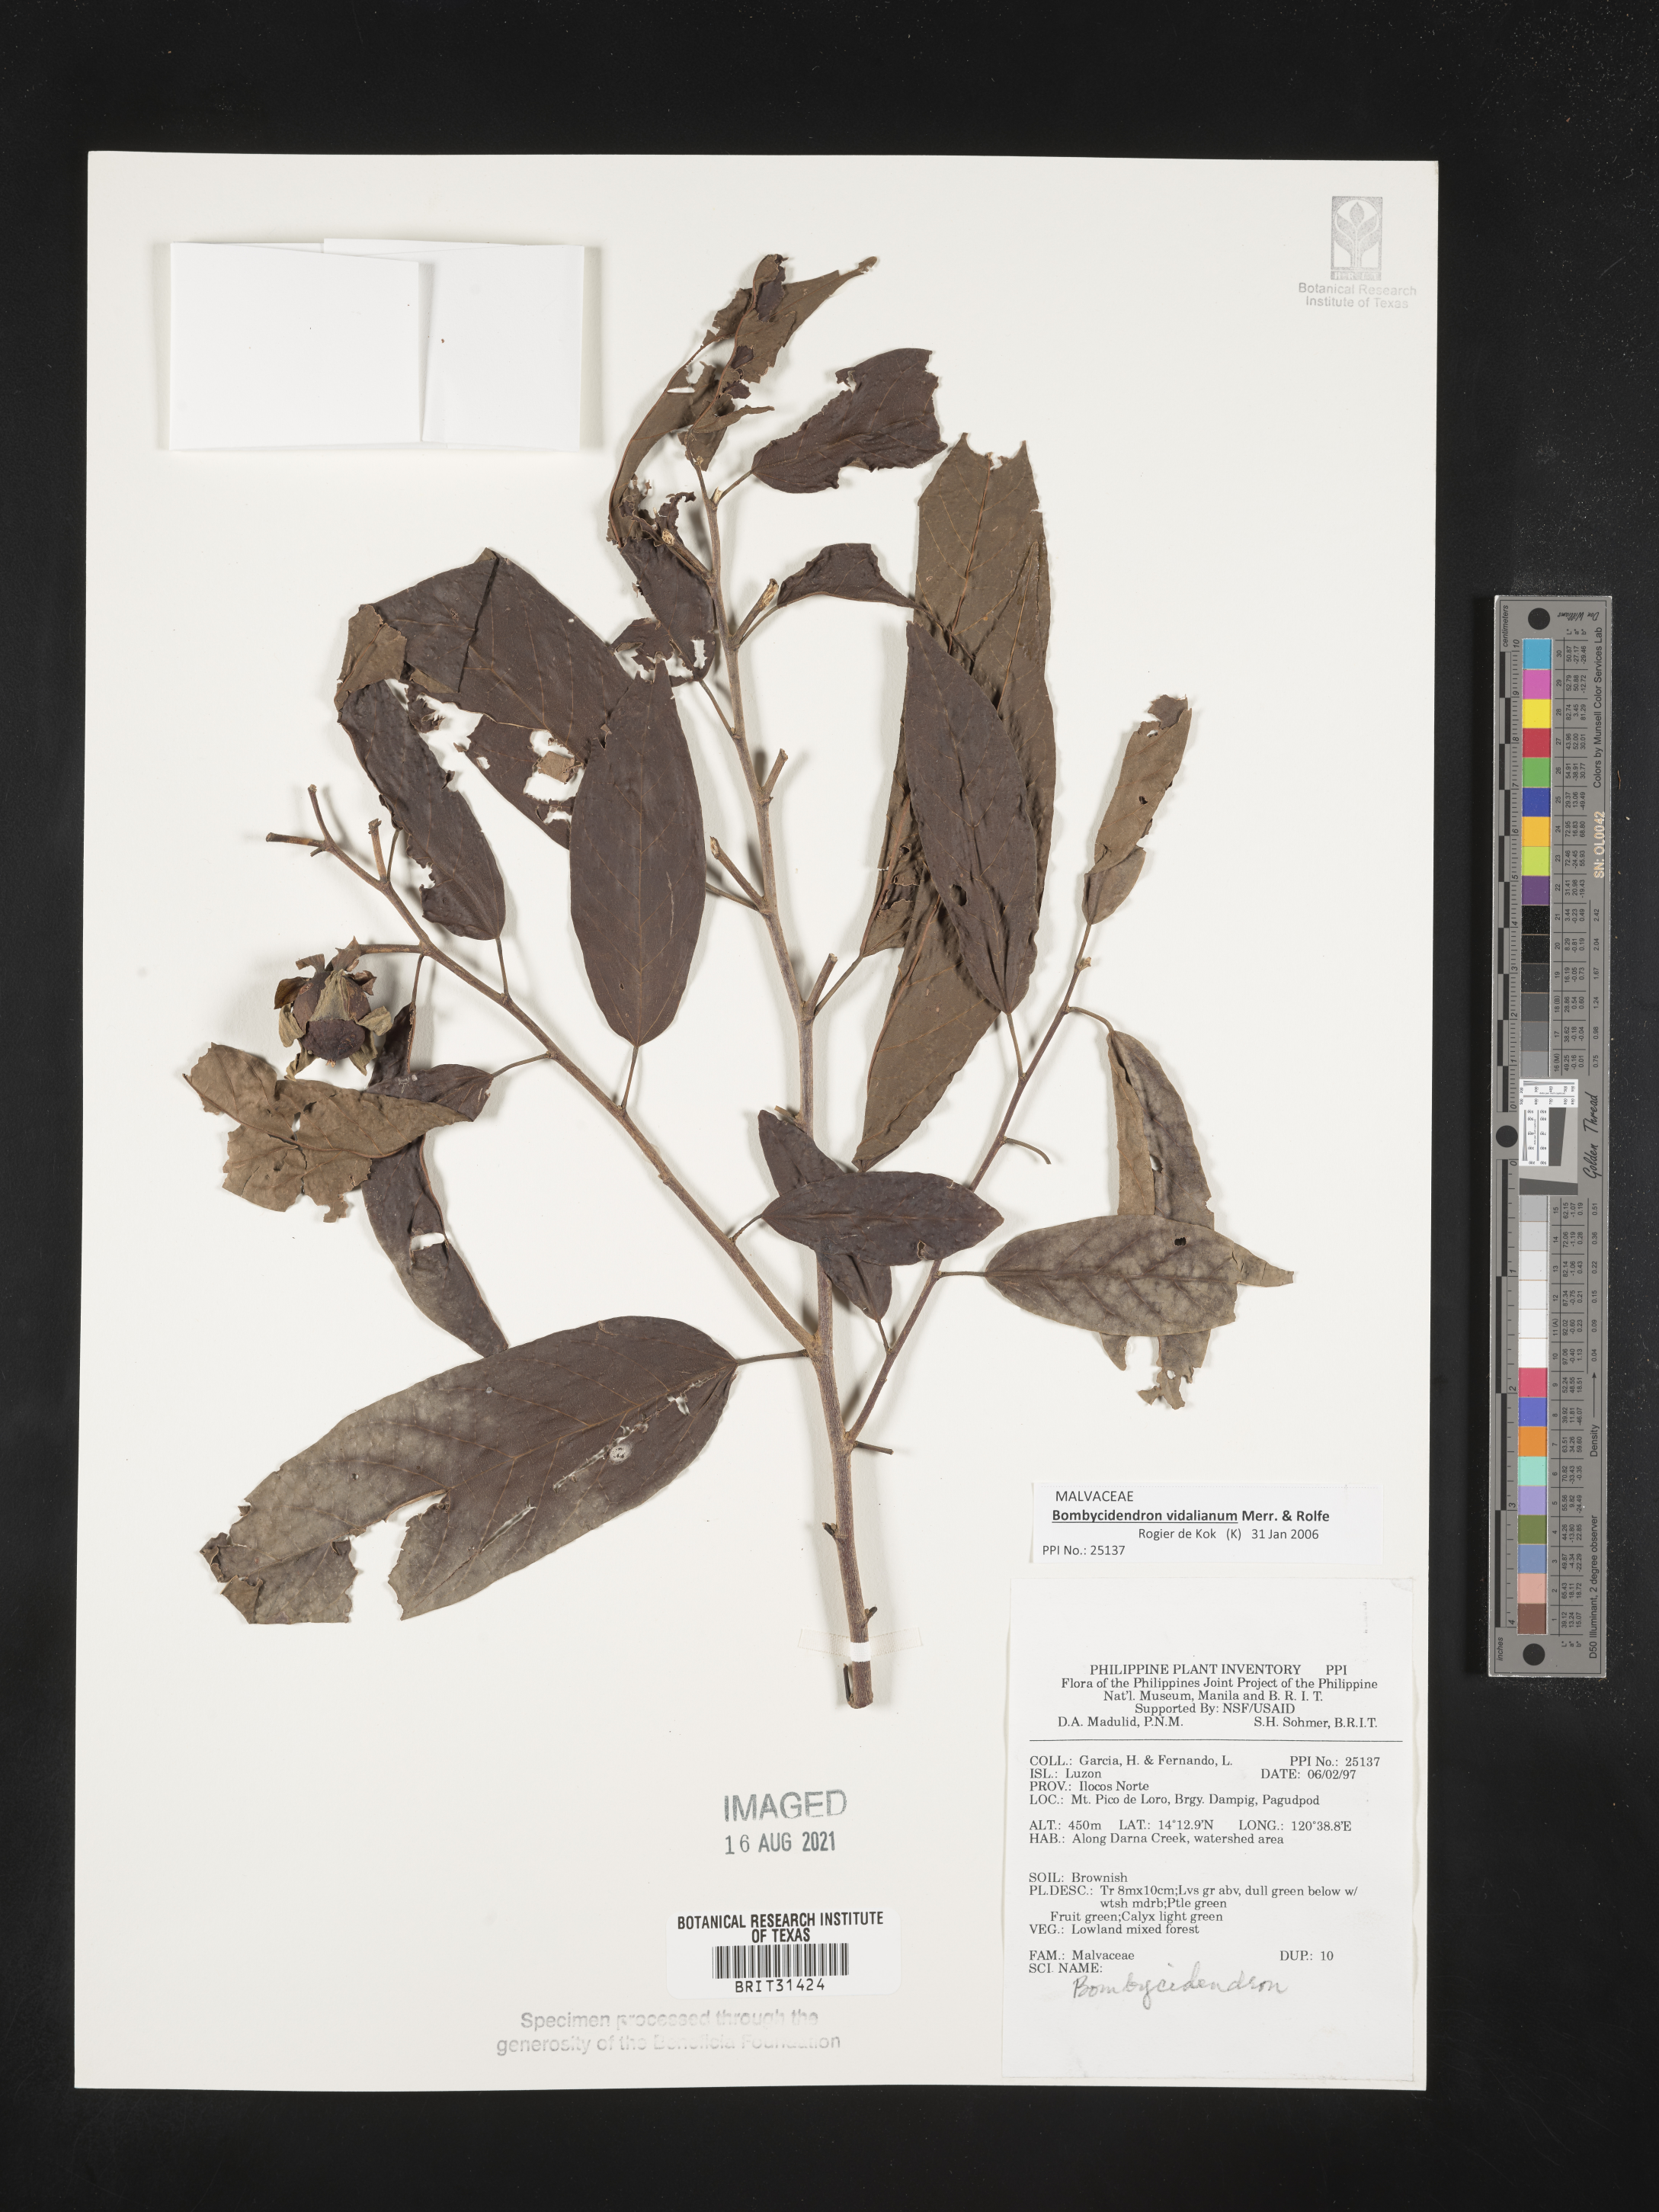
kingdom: Plantae
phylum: Tracheophyta
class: Magnoliopsida
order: Malvales
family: Malvaceae
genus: Bombycidendron
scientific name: Bombycidendron
